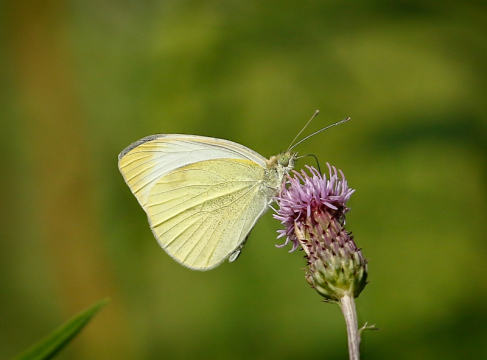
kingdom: Animalia
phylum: Arthropoda
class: Insecta
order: Lepidoptera
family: Pieridae
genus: Pieris
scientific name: Pieris rapae
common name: Cabbage White
